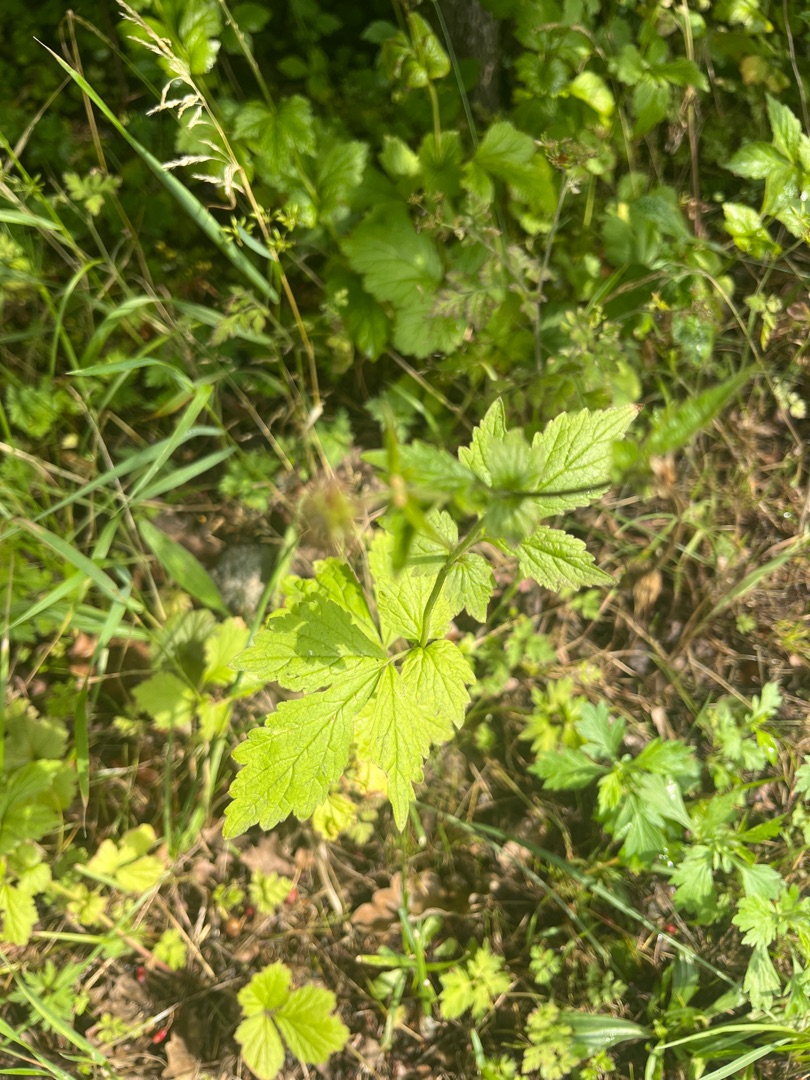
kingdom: Plantae
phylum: Tracheophyta
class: Magnoliopsida
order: Rosales
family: Rosaceae
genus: Geum
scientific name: Geum urbanum
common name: Feber-nellikerod
